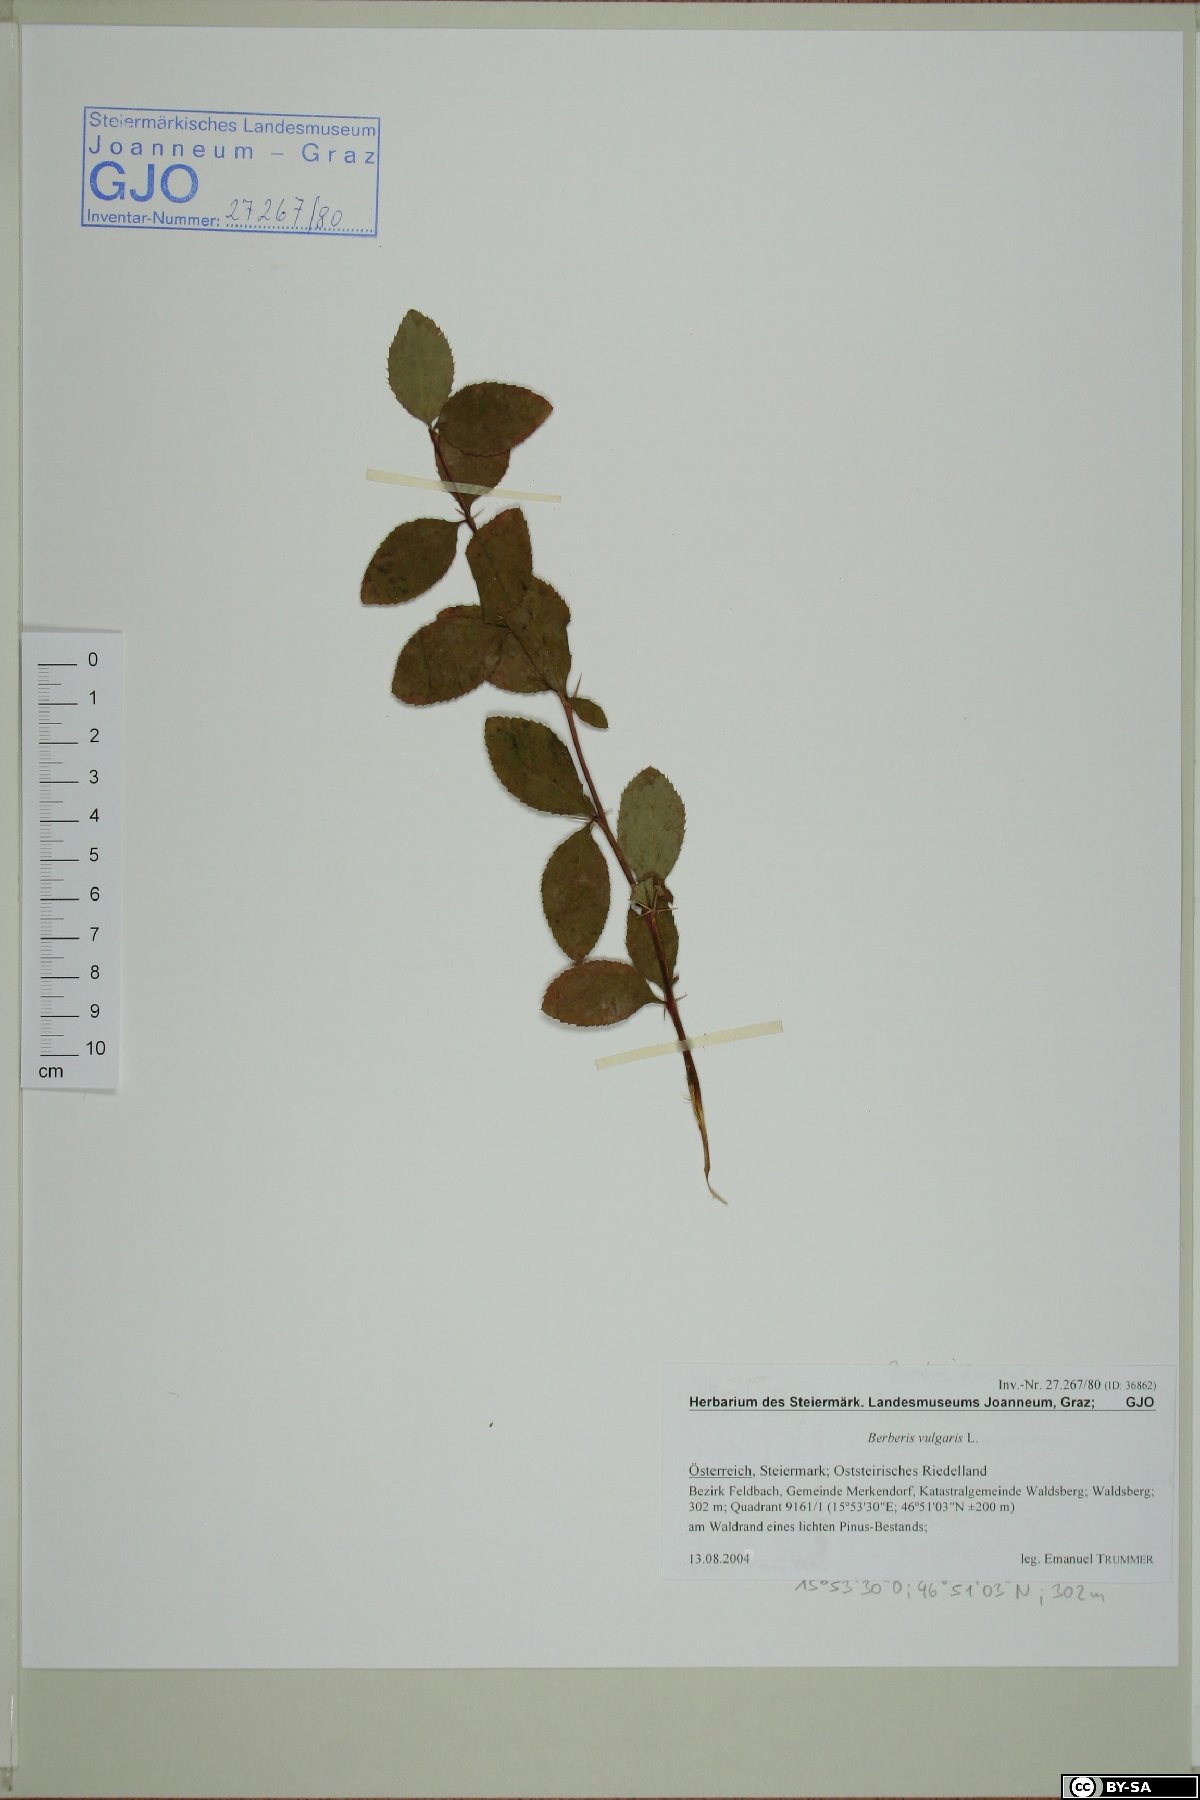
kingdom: Plantae
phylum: Tracheophyta
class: Magnoliopsida
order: Ranunculales
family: Berberidaceae
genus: Berberis
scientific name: Berberis vulgaris
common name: Barberry
